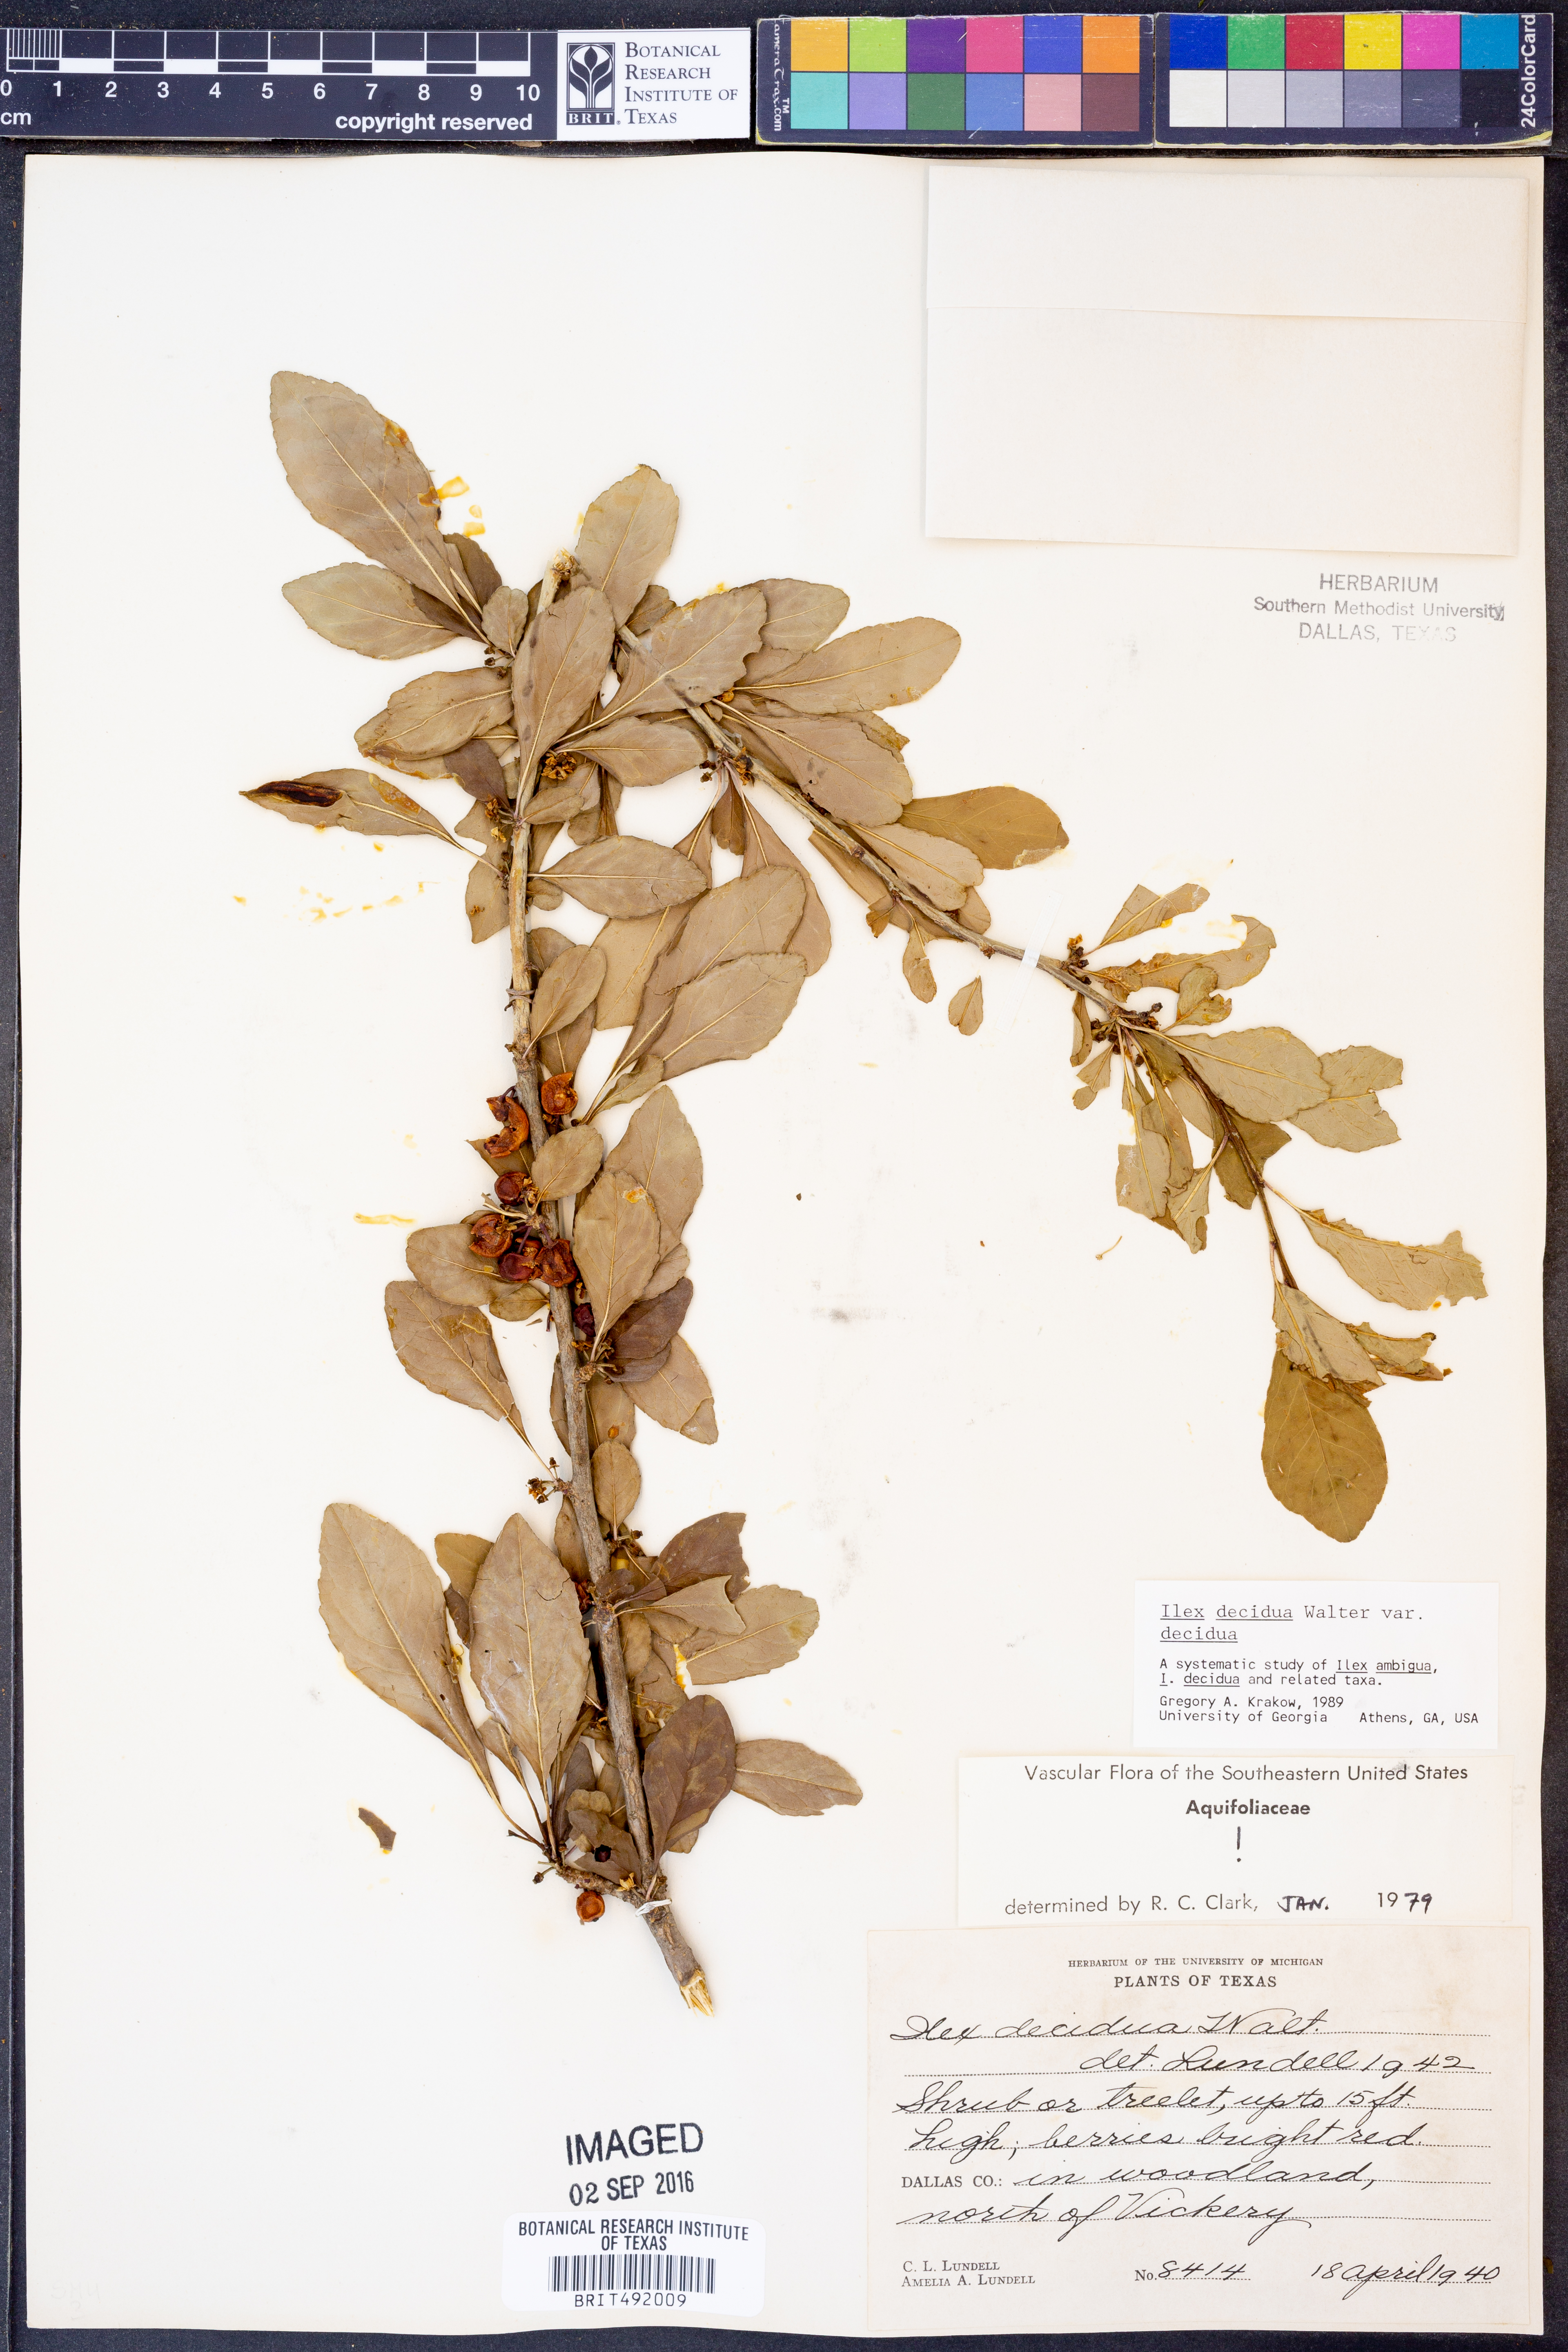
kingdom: Plantae
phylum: Tracheophyta
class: Magnoliopsida
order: Aquifoliales
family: Aquifoliaceae
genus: Ilex
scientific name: Ilex decidua
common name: Possum-haw
